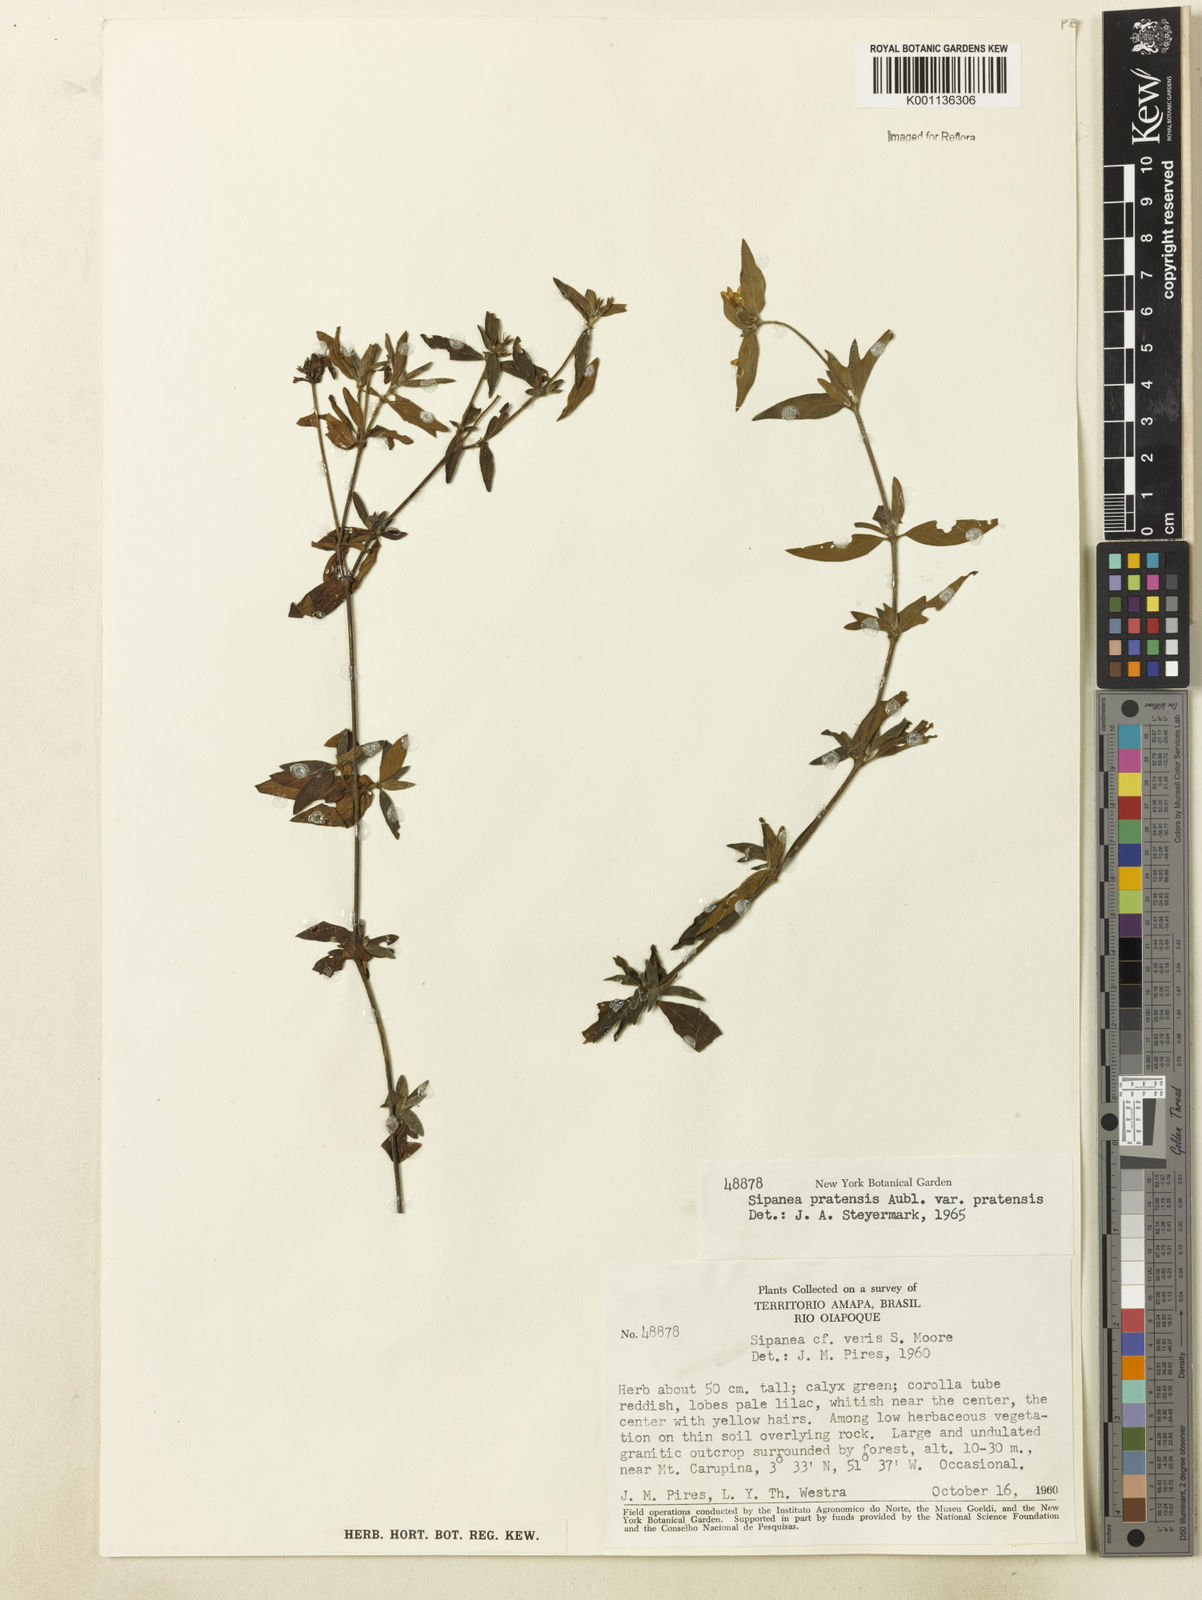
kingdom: Plantae
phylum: Tracheophyta
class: Magnoliopsida
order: Gentianales
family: Rubiaceae
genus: Sipanea
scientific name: Sipanea pratensis
